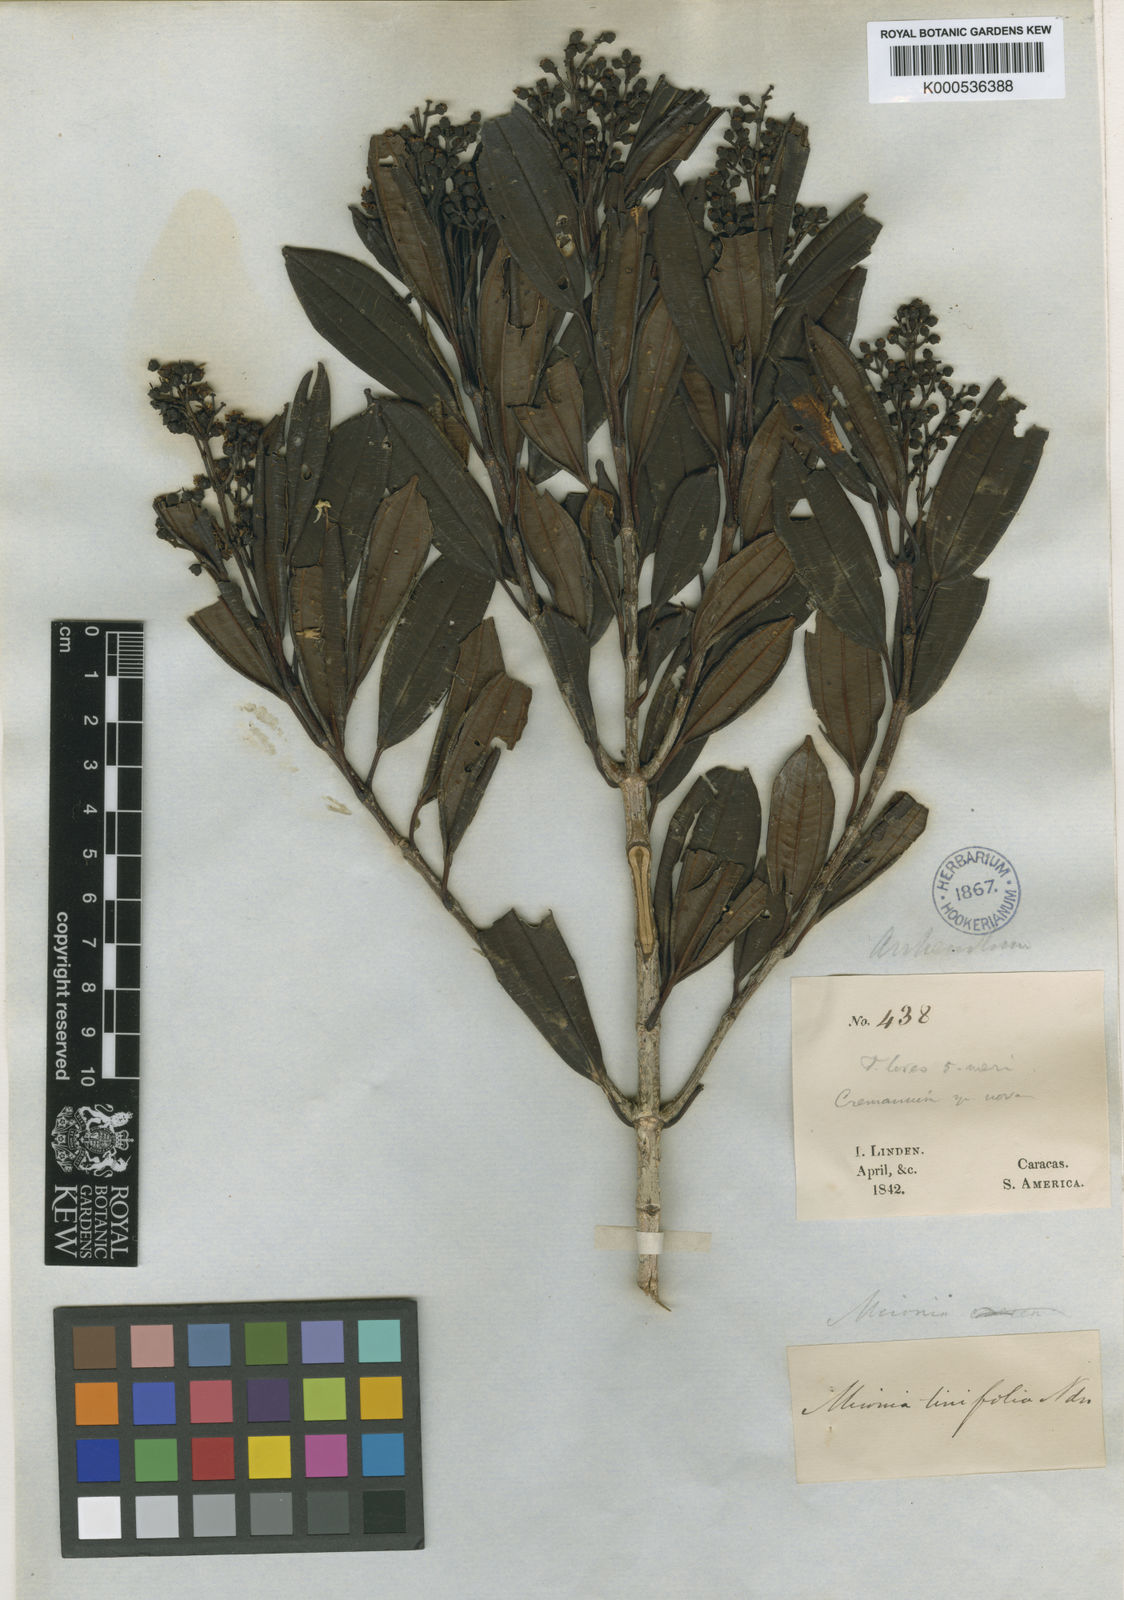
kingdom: Plantae
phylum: Tracheophyta
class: Magnoliopsida
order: Myrtales
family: Melastomataceae
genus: Miconia
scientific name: Miconia tinifolia
